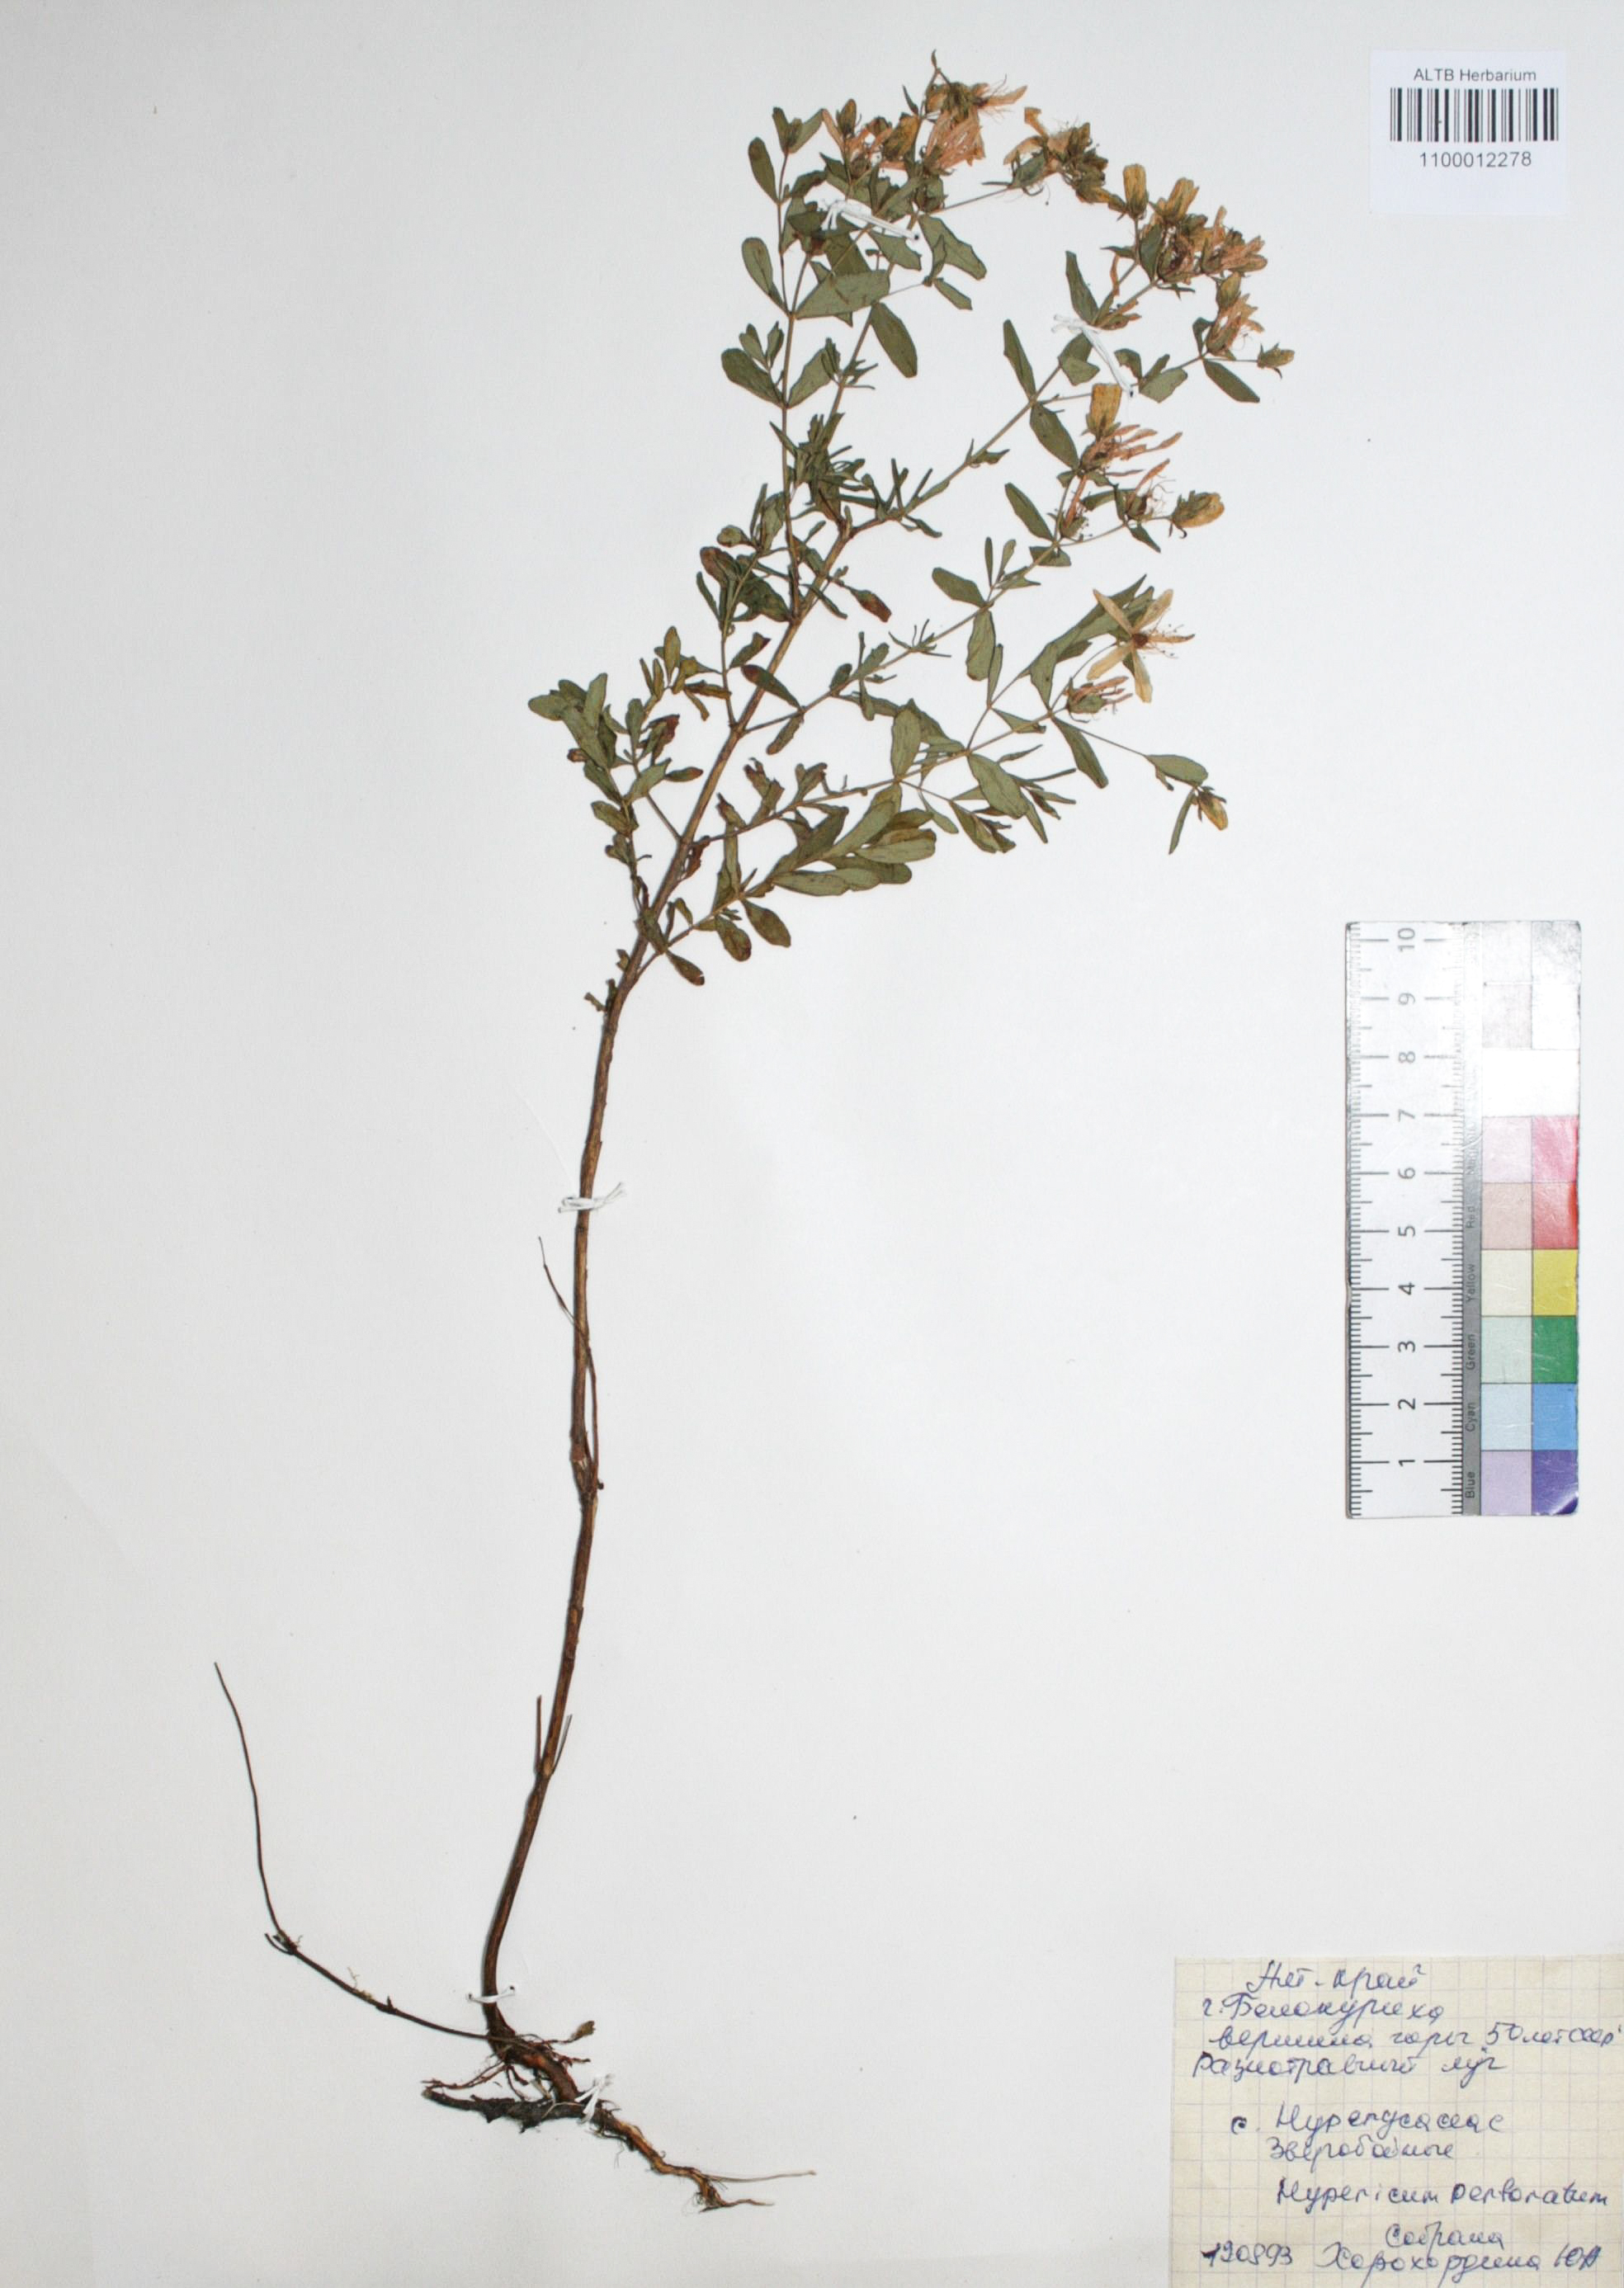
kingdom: Plantae
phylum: Tracheophyta
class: Magnoliopsida
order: Malpighiales
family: Hypericaceae
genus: Hypericum
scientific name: Hypericum perforatum
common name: Common st. johnswort
